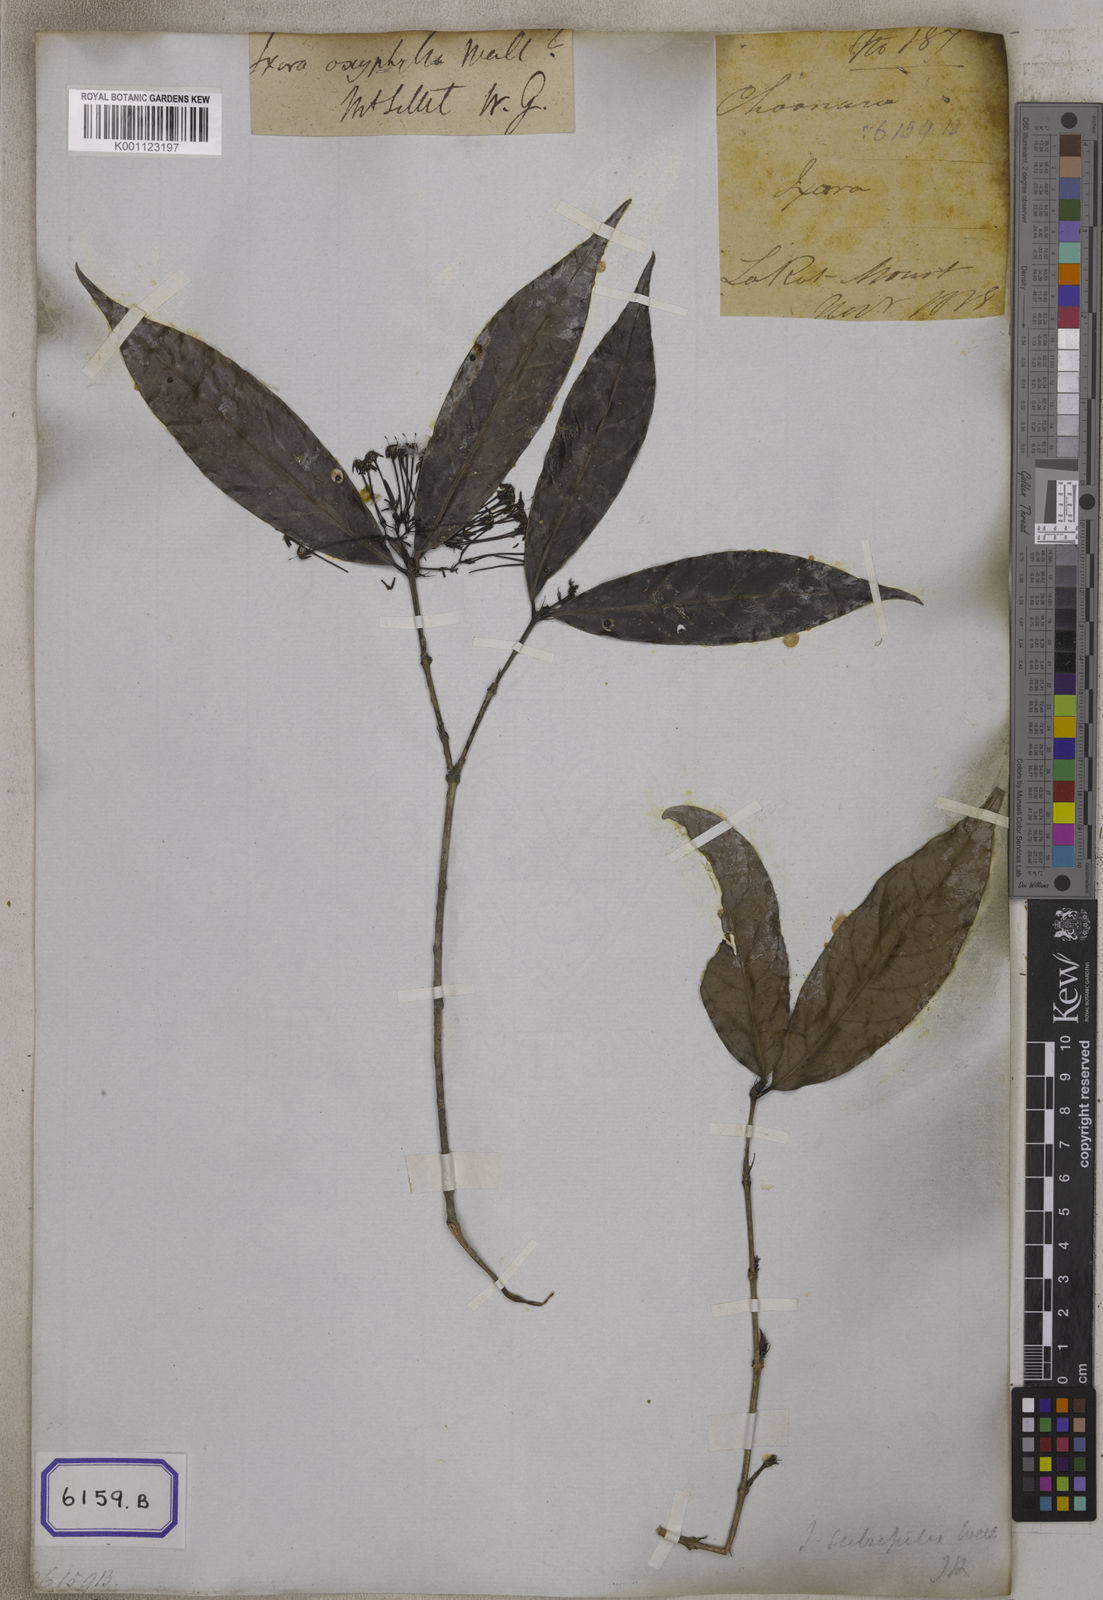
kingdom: Plantae
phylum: Tracheophyta
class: Magnoliopsida
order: Gentianales
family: Rubiaceae
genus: Ixora
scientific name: Ixora
